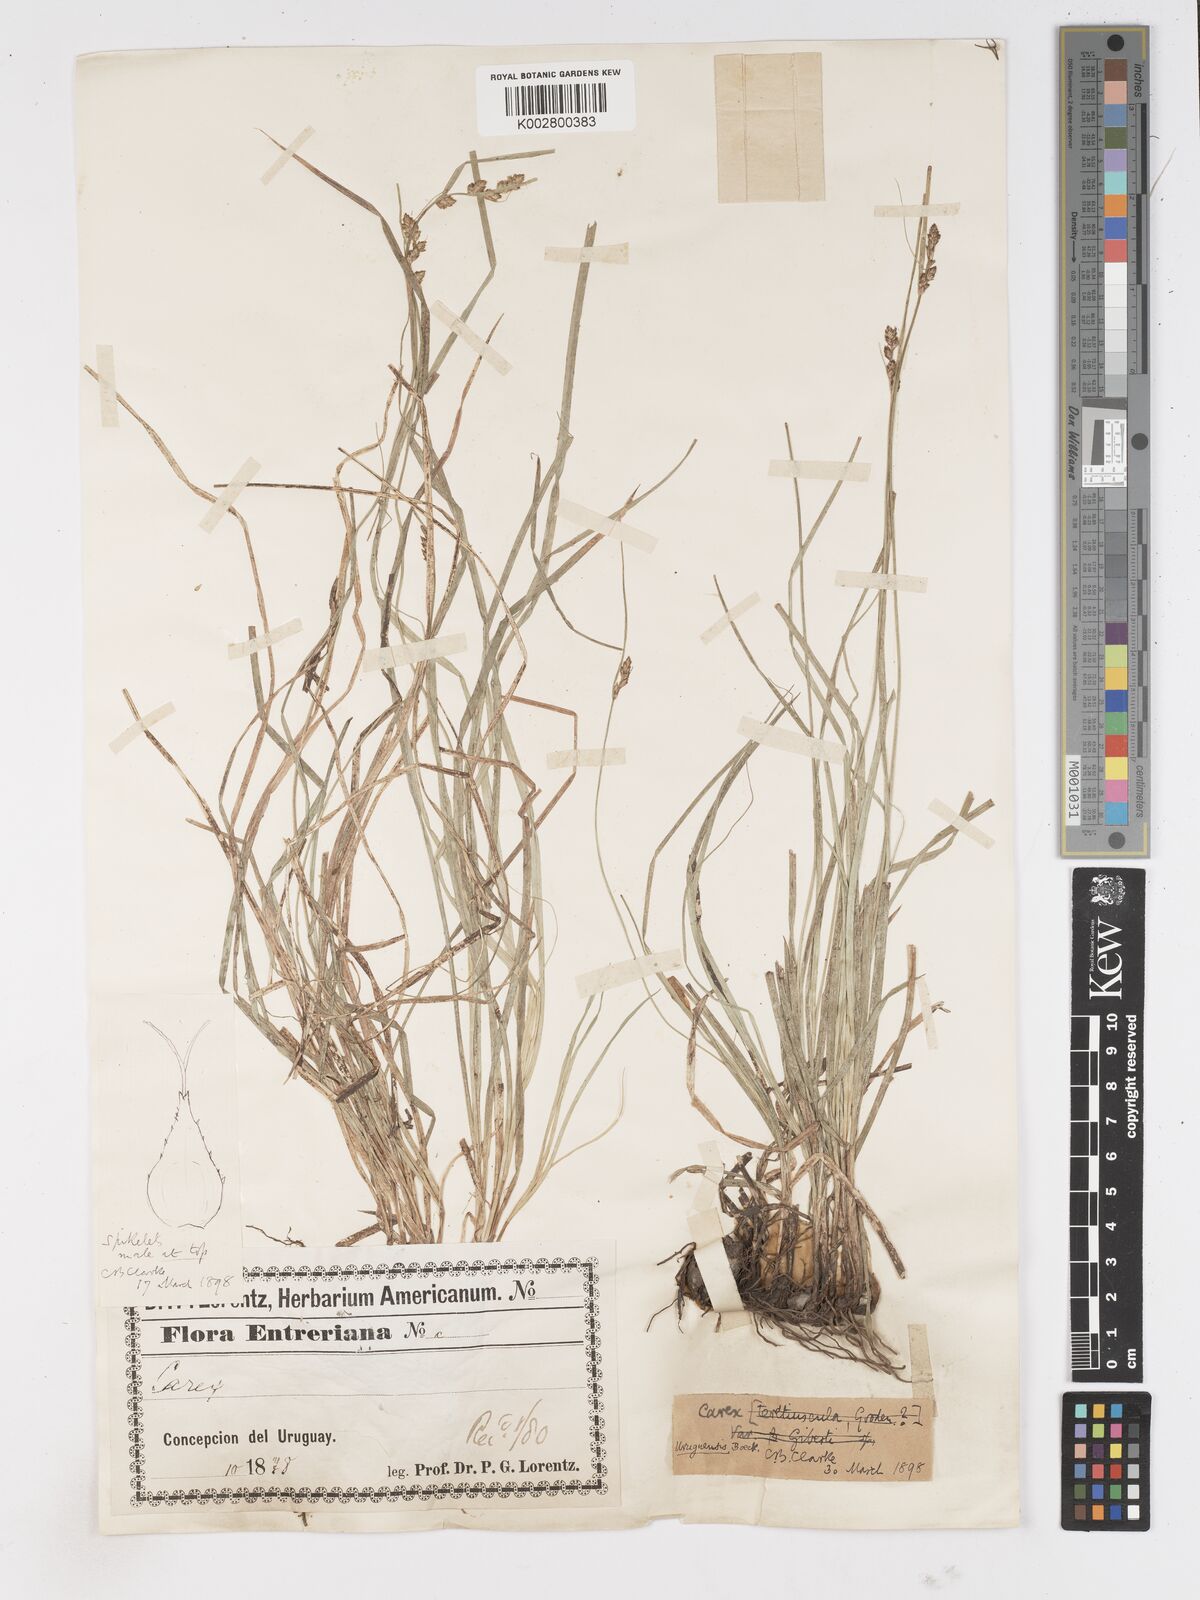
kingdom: Plantae
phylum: Tracheophyta
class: Liliopsida
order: Poales
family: Cyperaceae
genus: Carex
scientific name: Carex uruguensis
